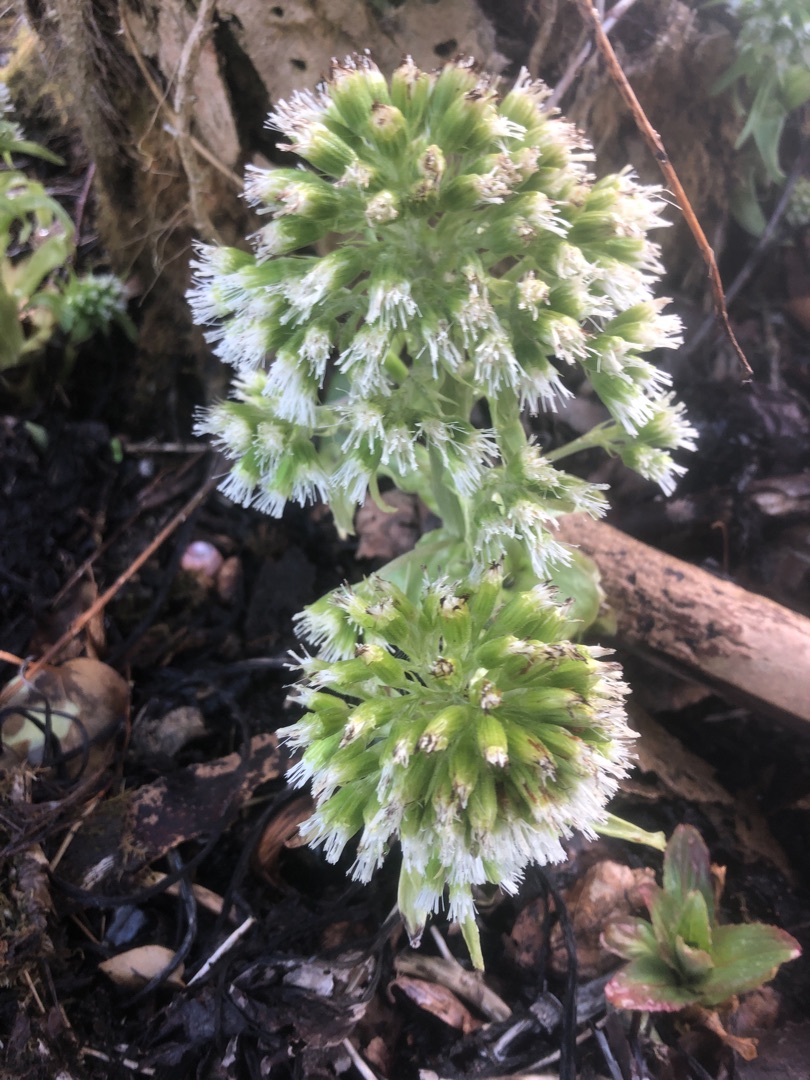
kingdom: Plantae
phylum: Tracheophyta
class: Magnoliopsida
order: Asterales
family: Asteraceae
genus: Petasites
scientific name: Petasites albus
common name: Hvid hestehov
